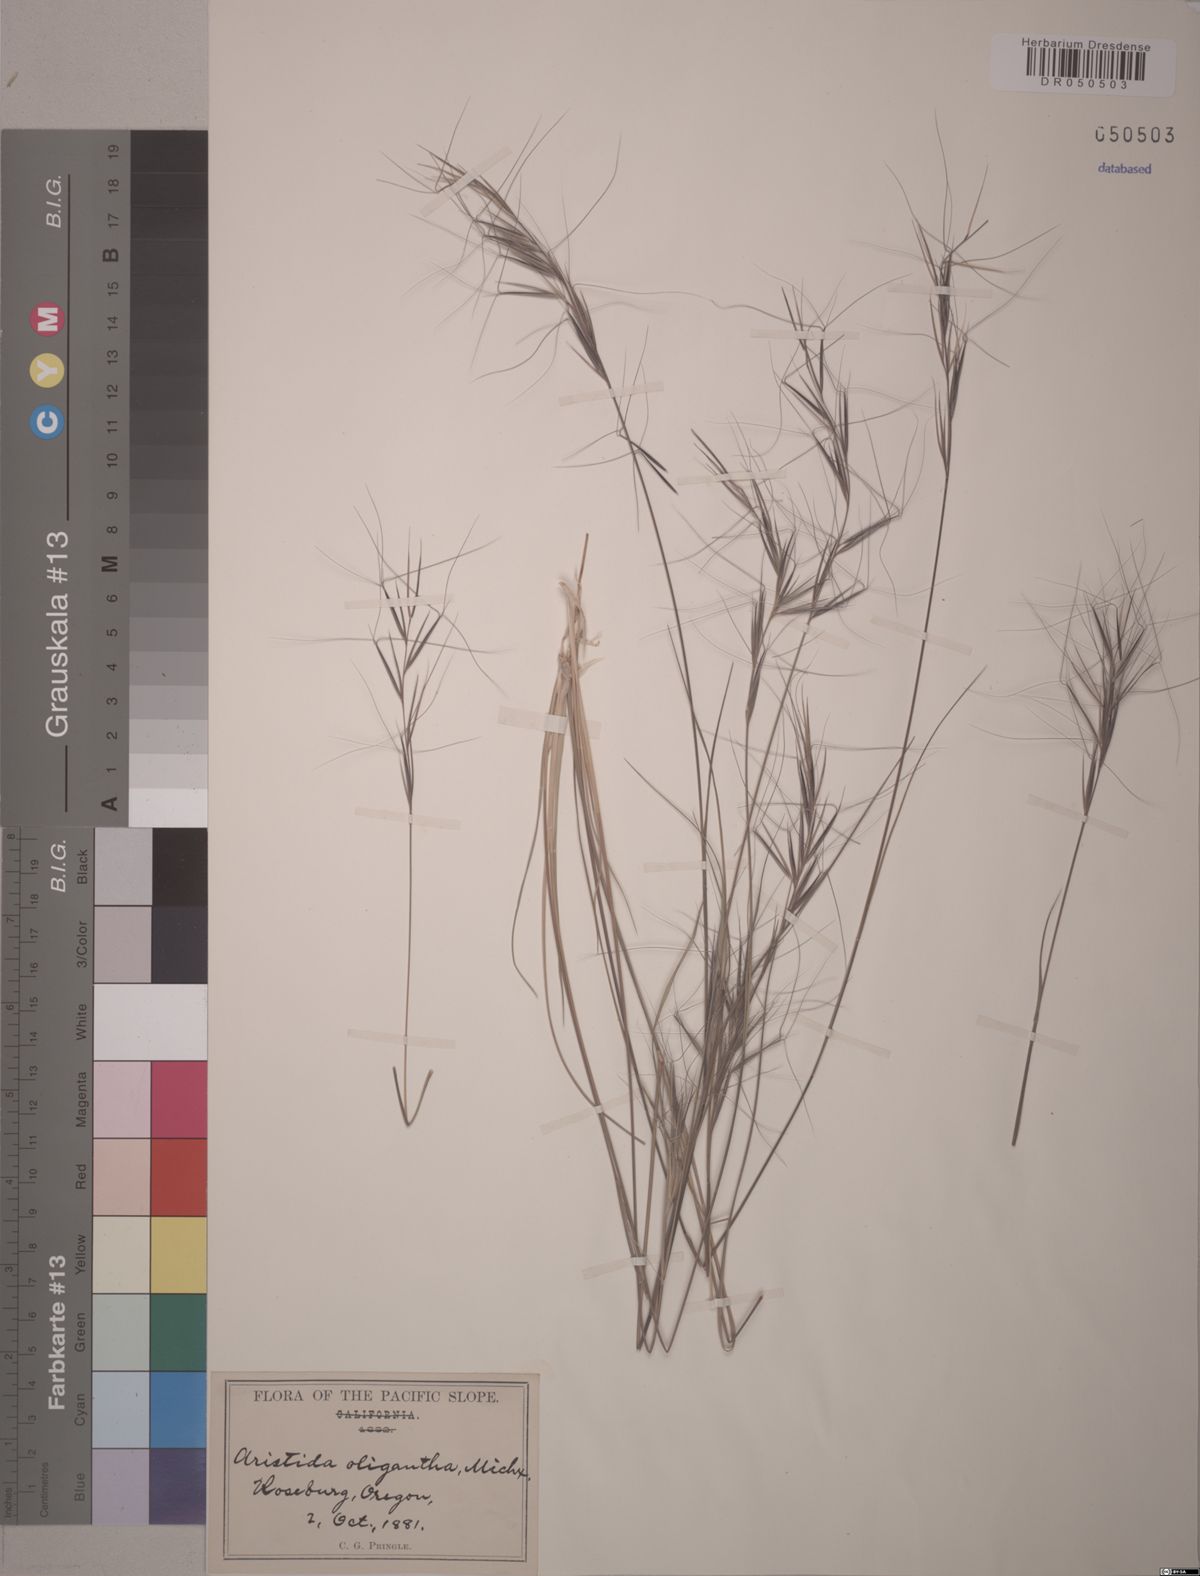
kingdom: Plantae
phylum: Tracheophyta
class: Liliopsida
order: Poales
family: Poaceae
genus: Aristida
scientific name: Aristida oligantha
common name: Few-flowered aristida
